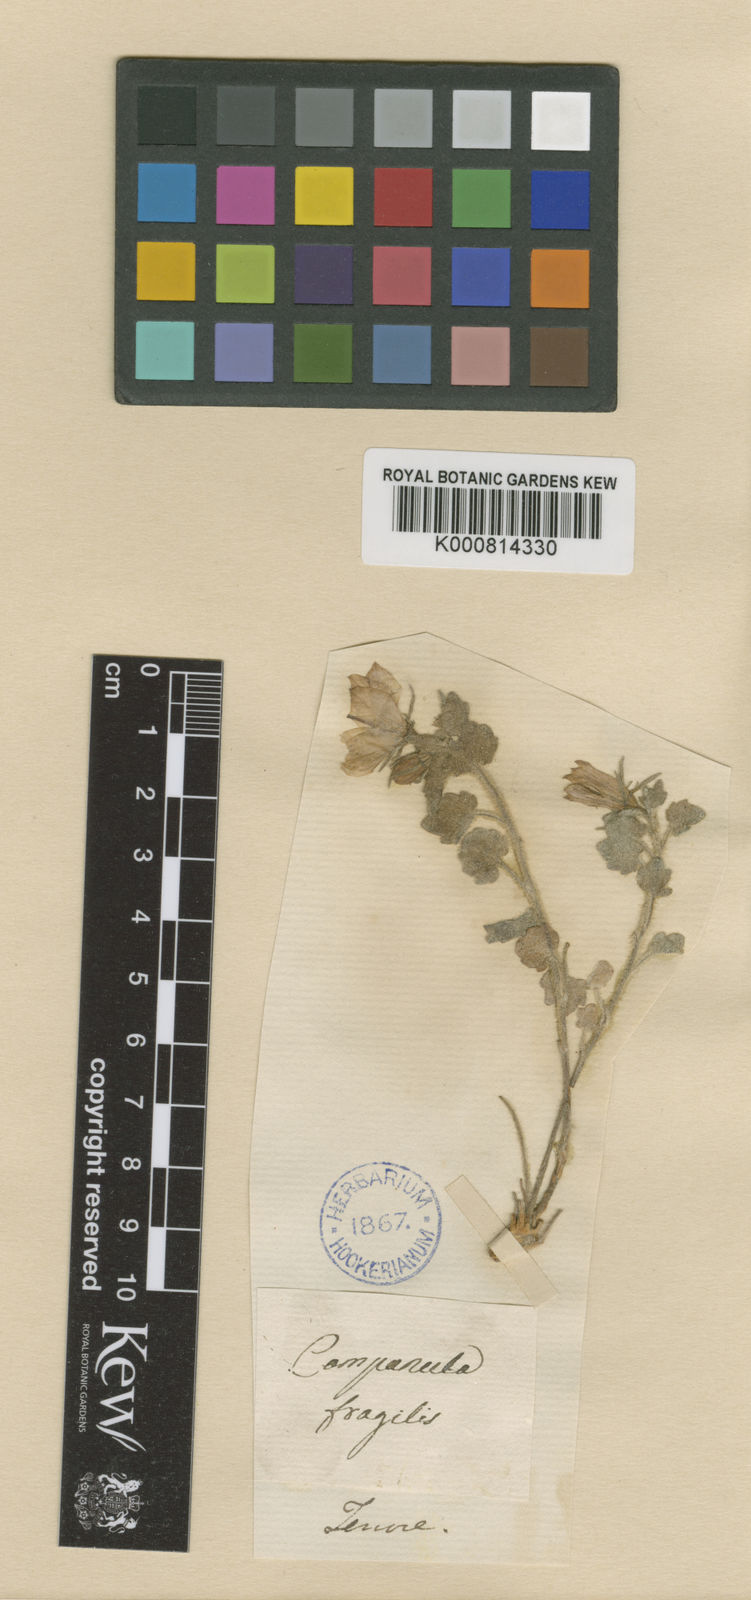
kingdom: Plantae
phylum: Tracheophyta
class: Magnoliopsida
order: Asterales
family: Campanulaceae
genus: Campanula
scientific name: Campanula fragilis
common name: Italian bellflower
